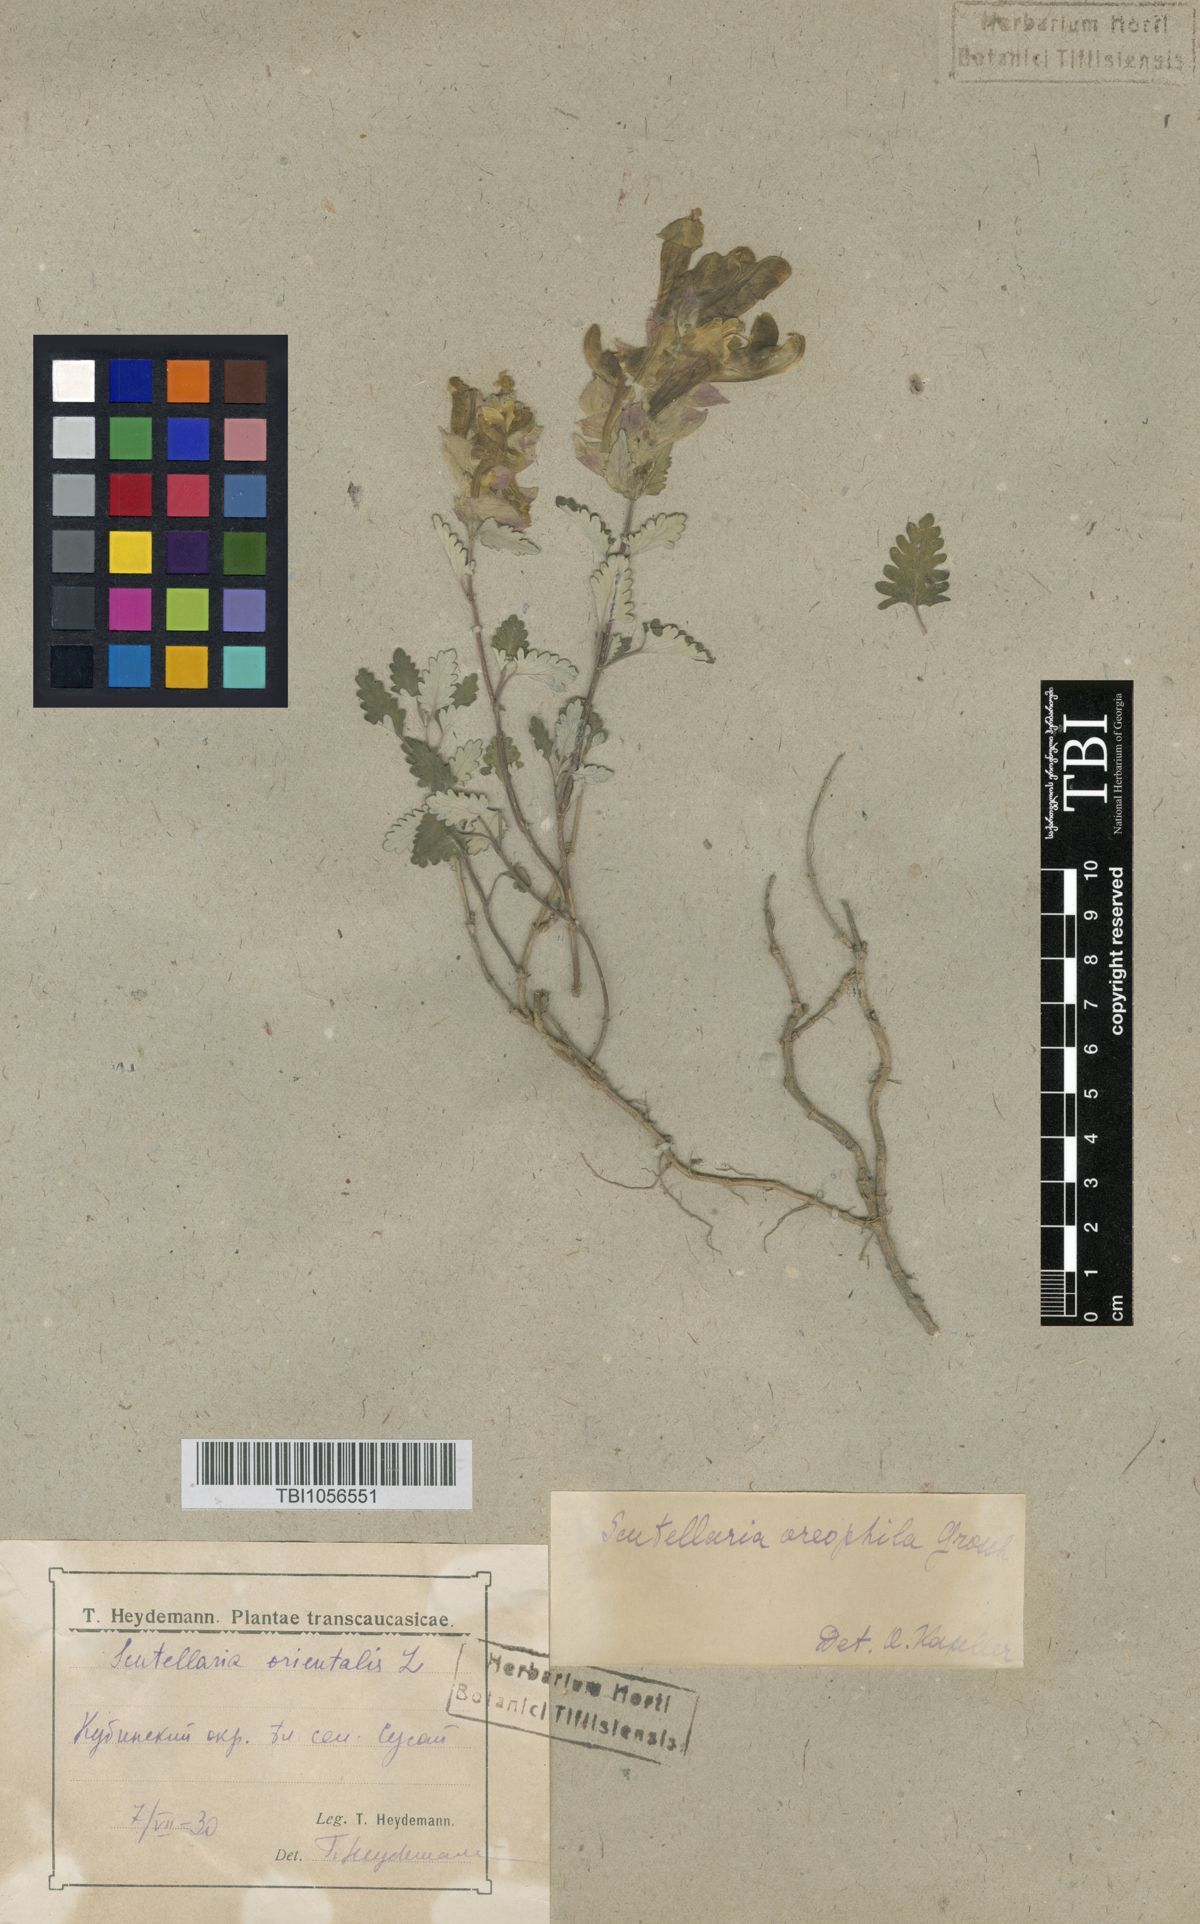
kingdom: Plantae
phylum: Tracheophyta
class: Magnoliopsida
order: Lamiales
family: Lamiaceae
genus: Scutellaria
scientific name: Scutellaria oreophila
